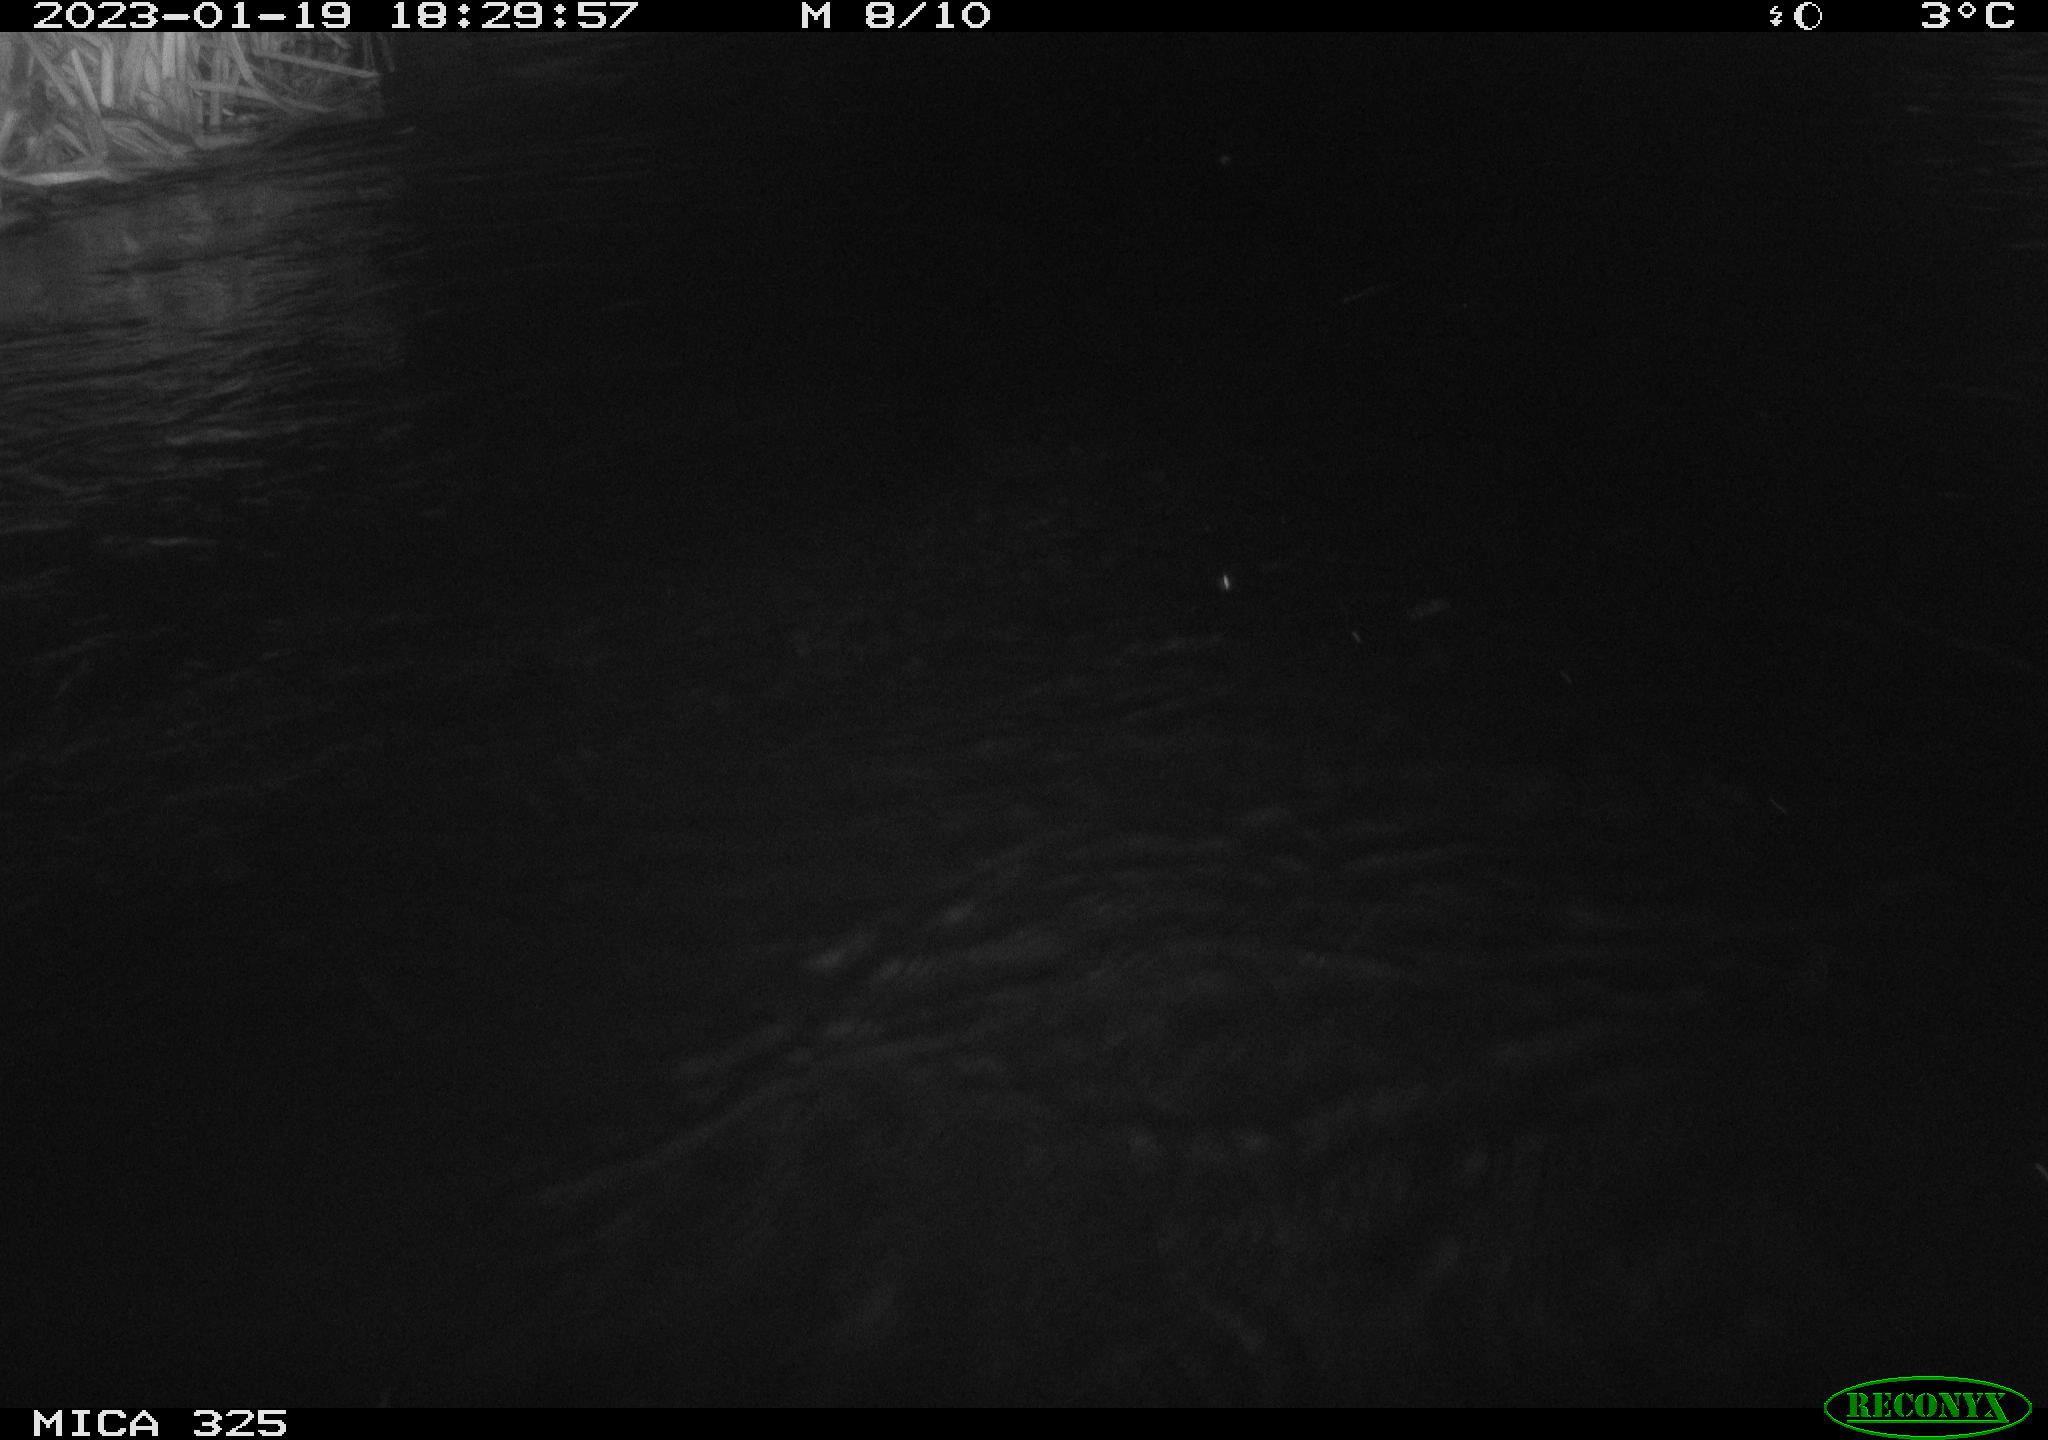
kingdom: Animalia
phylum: Chordata
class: Mammalia
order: Rodentia
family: Cricetidae
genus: Ondatra
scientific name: Ondatra zibethicus
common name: Muskrat
